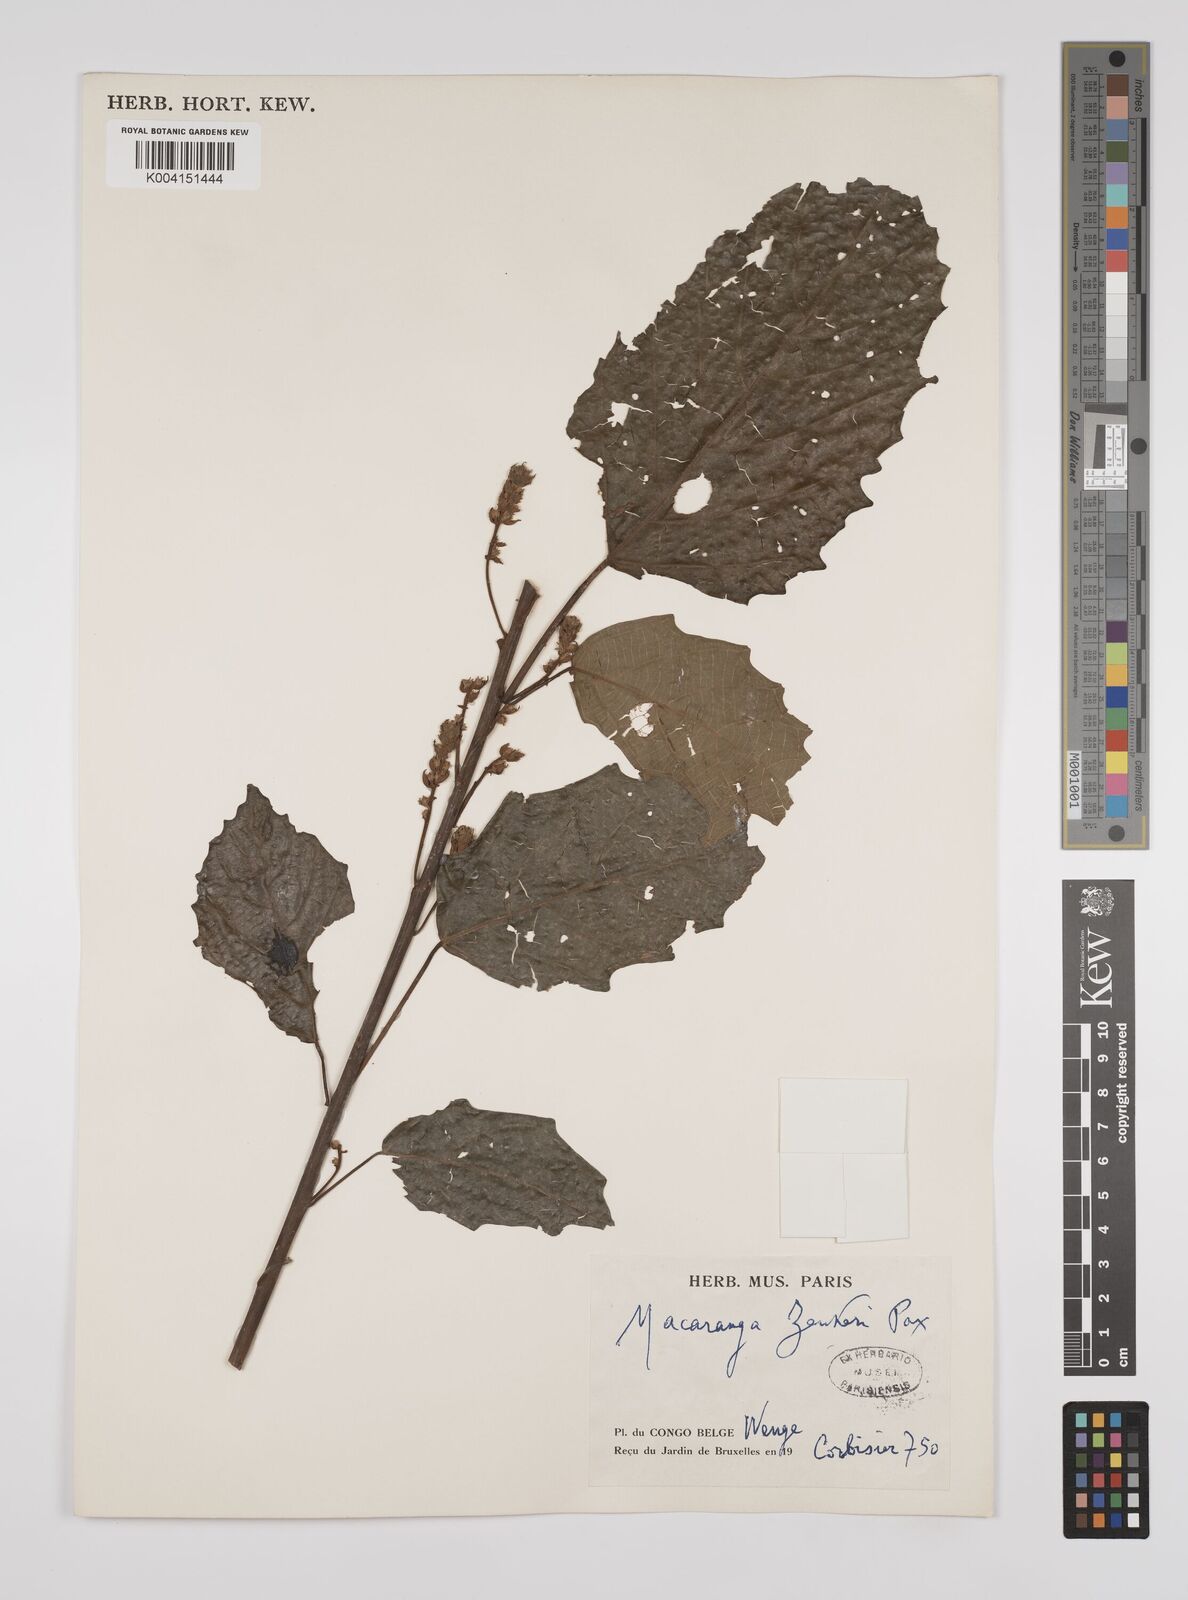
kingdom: Plantae
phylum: Tracheophyta
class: Magnoliopsida
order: Malpighiales
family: Euphorbiaceae
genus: Macaranga
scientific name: Macaranga monandra
